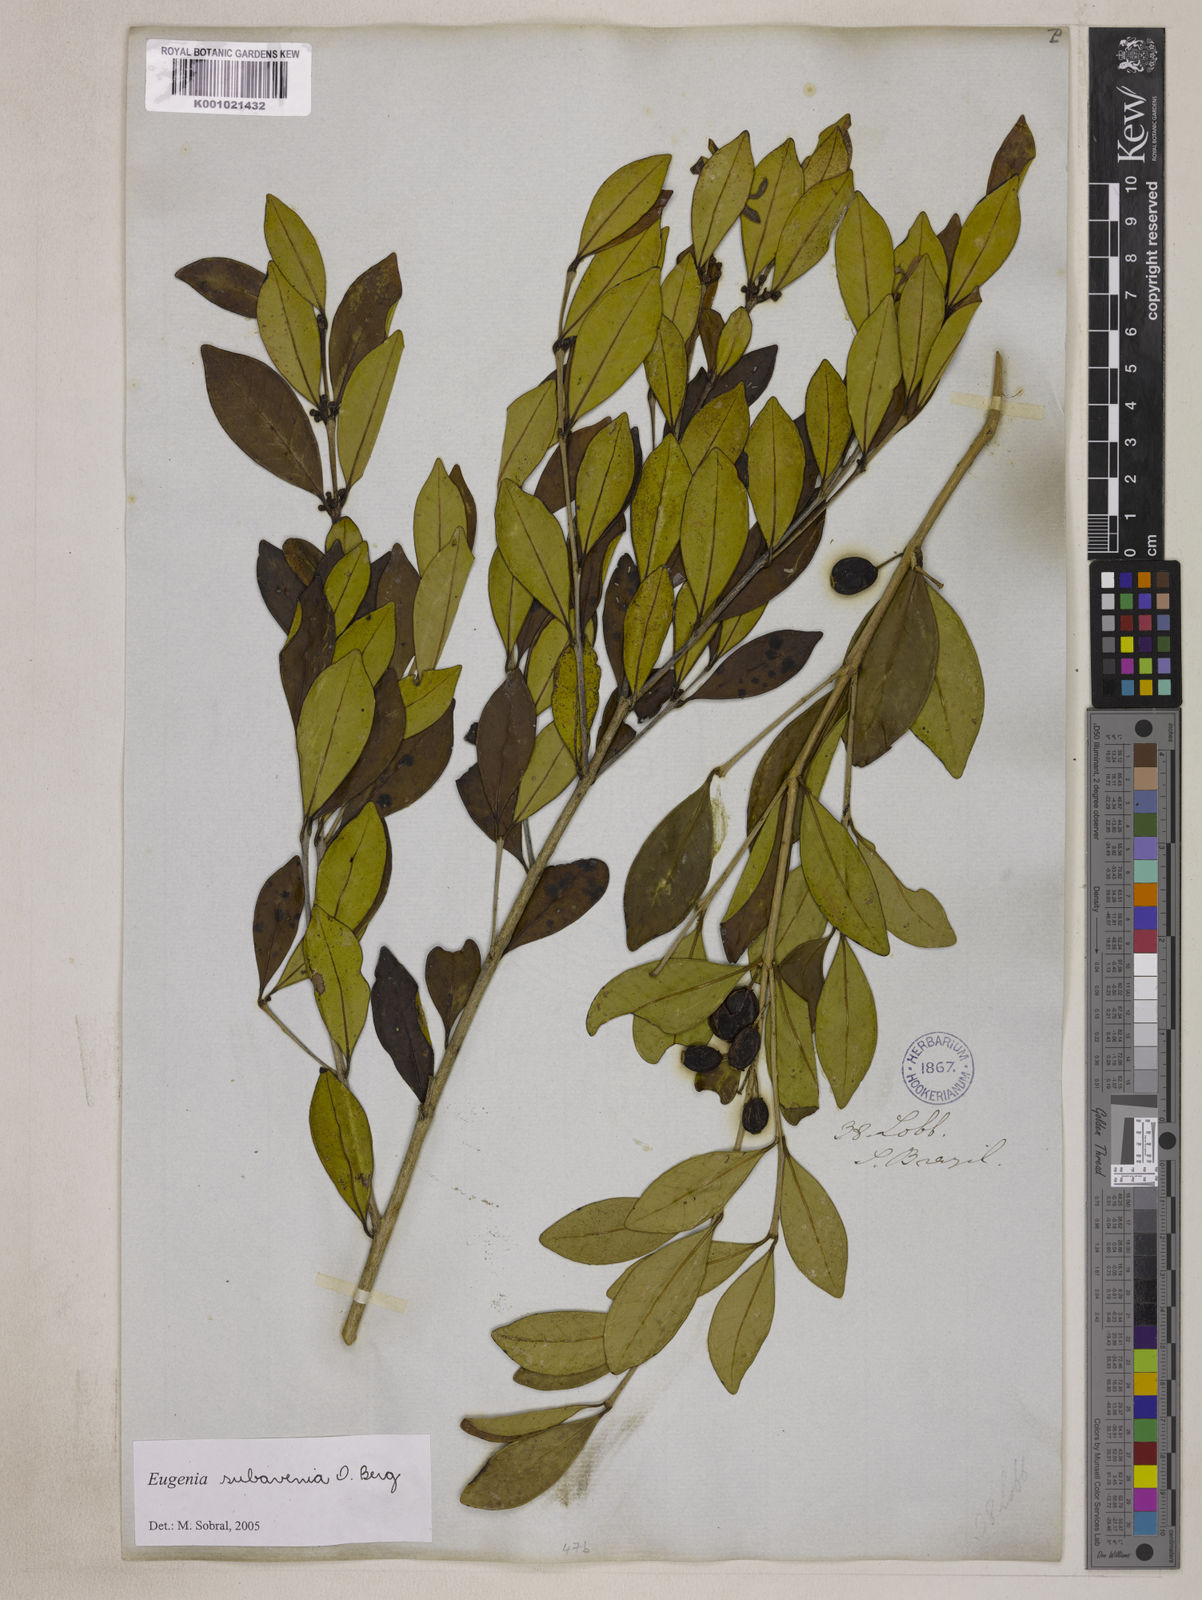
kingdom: Plantae
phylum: Tracheophyta
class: Magnoliopsida
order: Myrtales
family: Myrtaceae
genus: Eugenia
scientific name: Eugenia subavenia
